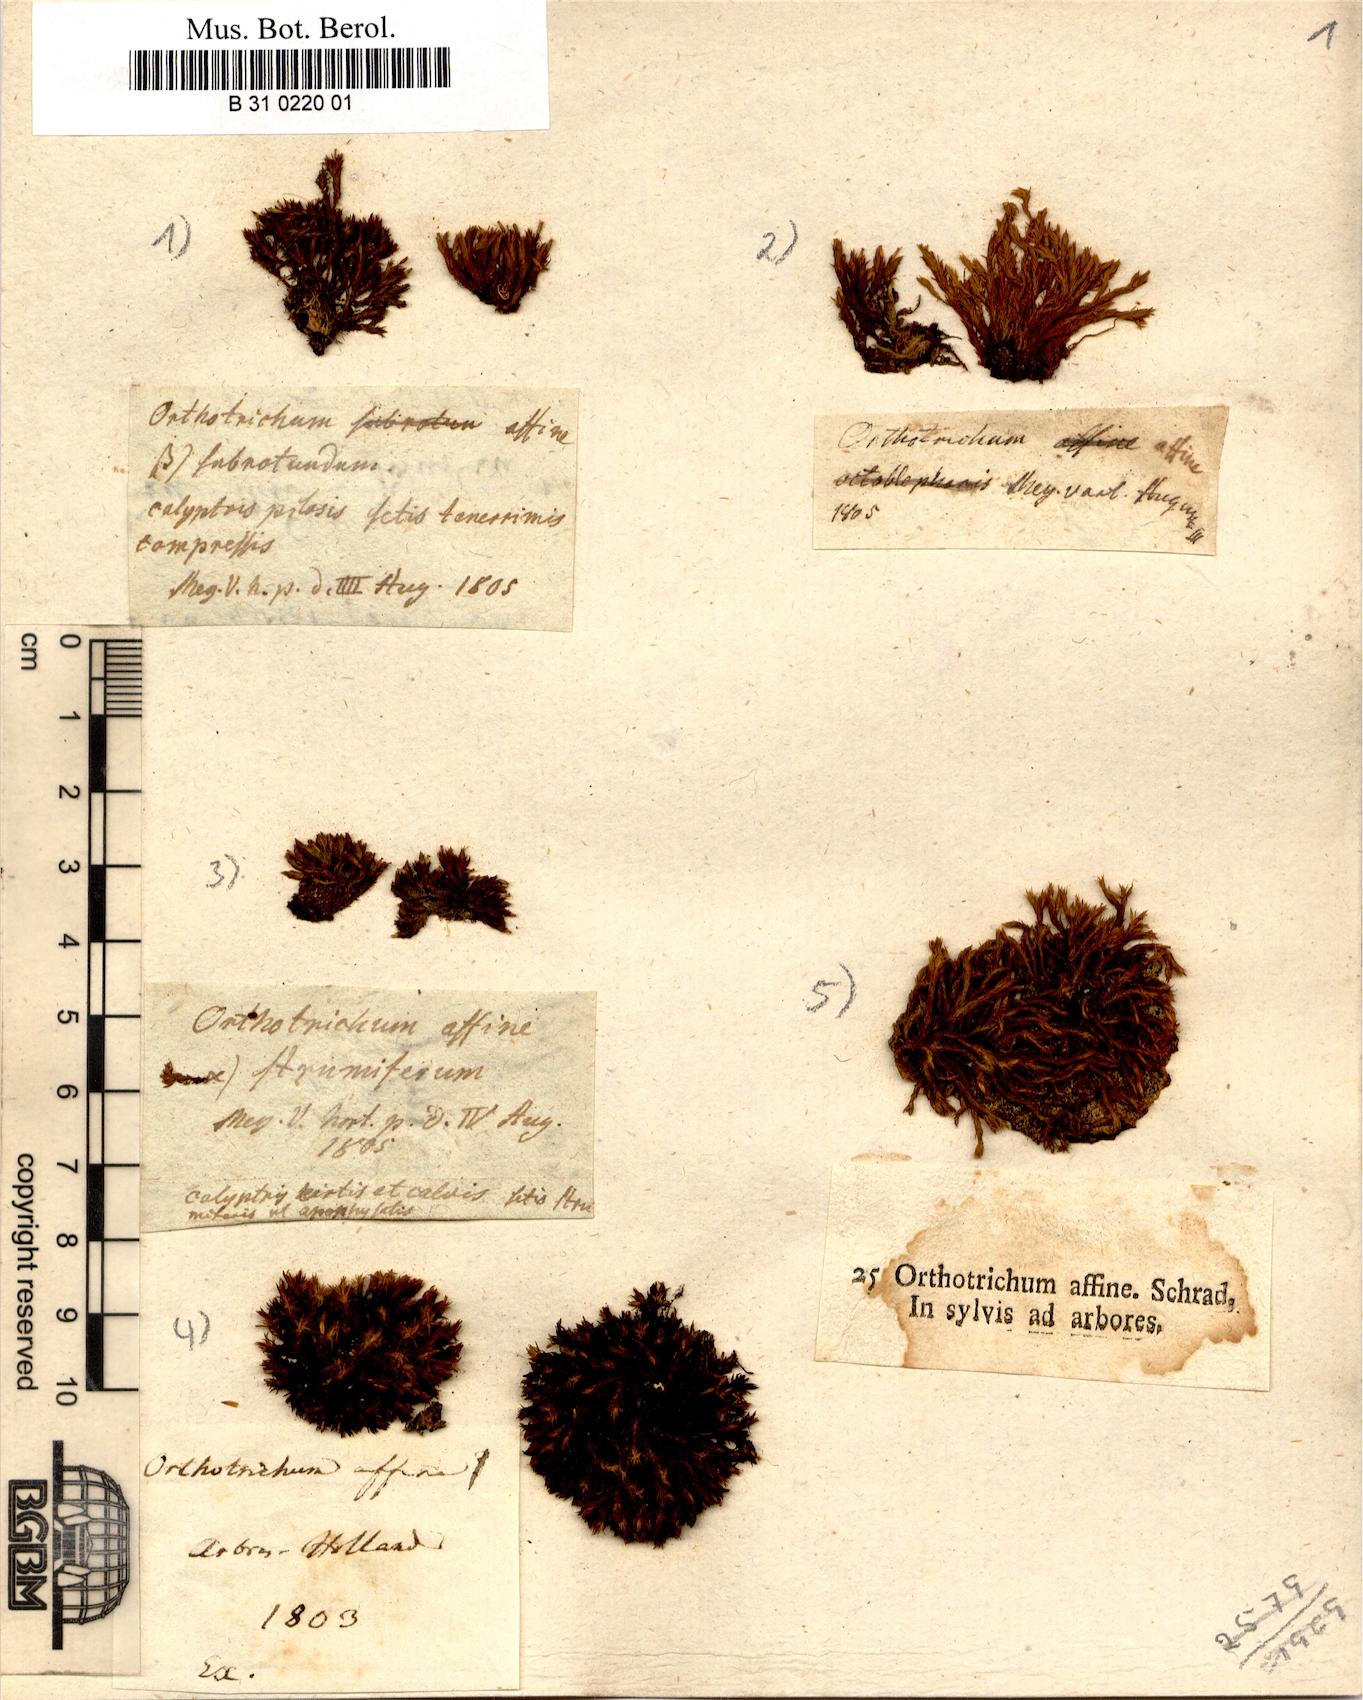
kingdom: Plantae
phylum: Bryophyta
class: Bryopsida
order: Orthotrichales
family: Orthotrichaceae
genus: Lewinskya
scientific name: Lewinskya affinis
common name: Wood bristle-moss
